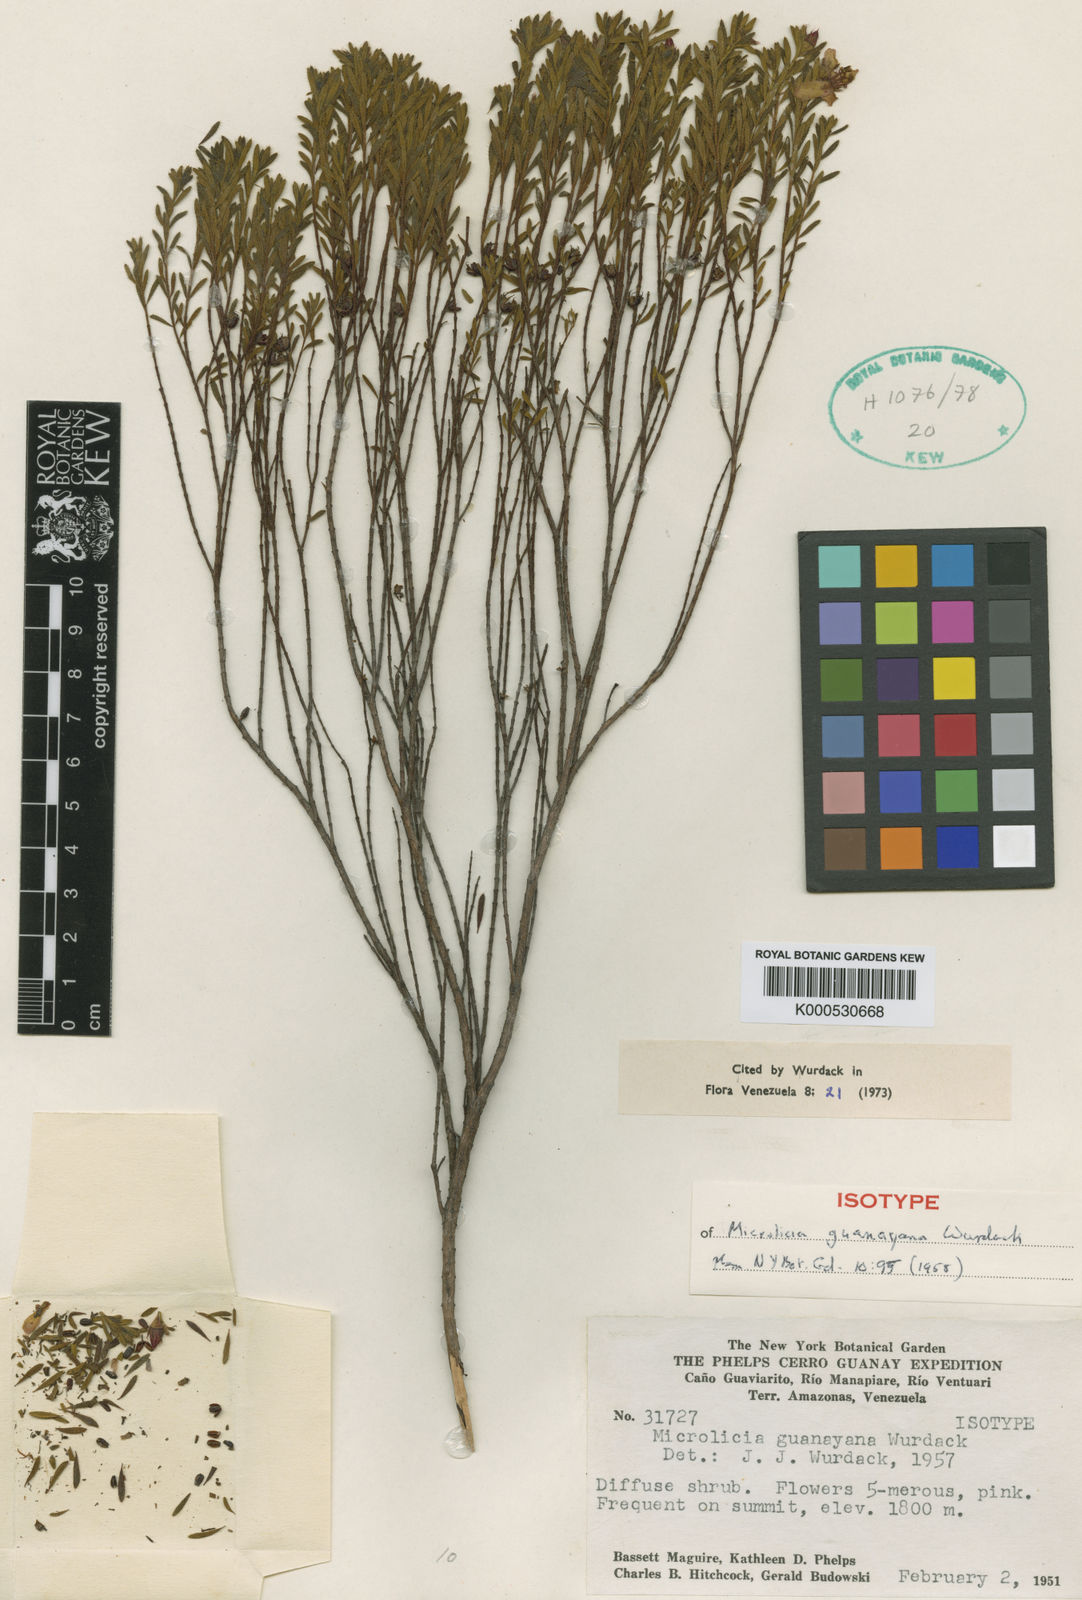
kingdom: Plantae
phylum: Tracheophyta
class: Magnoliopsida
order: Myrtales
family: Melastomataceae
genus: Microlicia
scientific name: Microlicia guanayana
